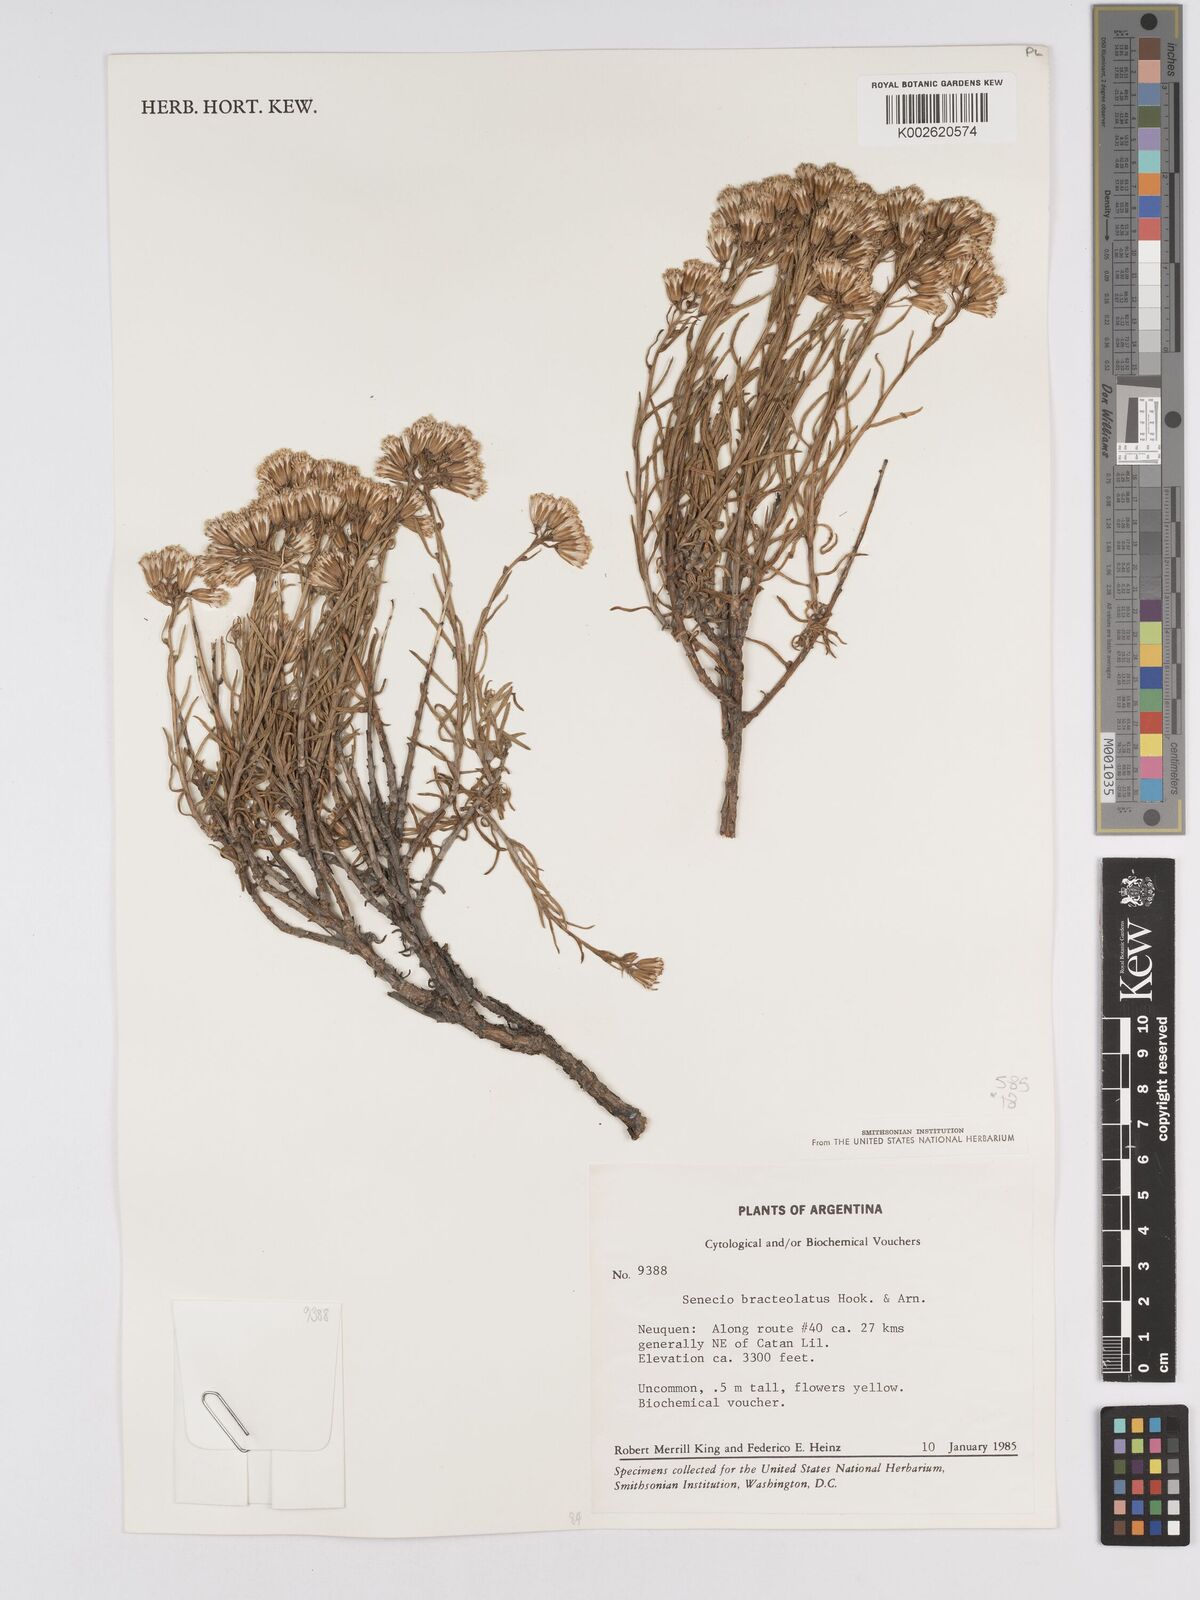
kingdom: Plantae
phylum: Tracheophyta
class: Magnoliopsida
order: Asterales
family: Asteraceae
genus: Senecio
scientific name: Senecio bracteolatus
